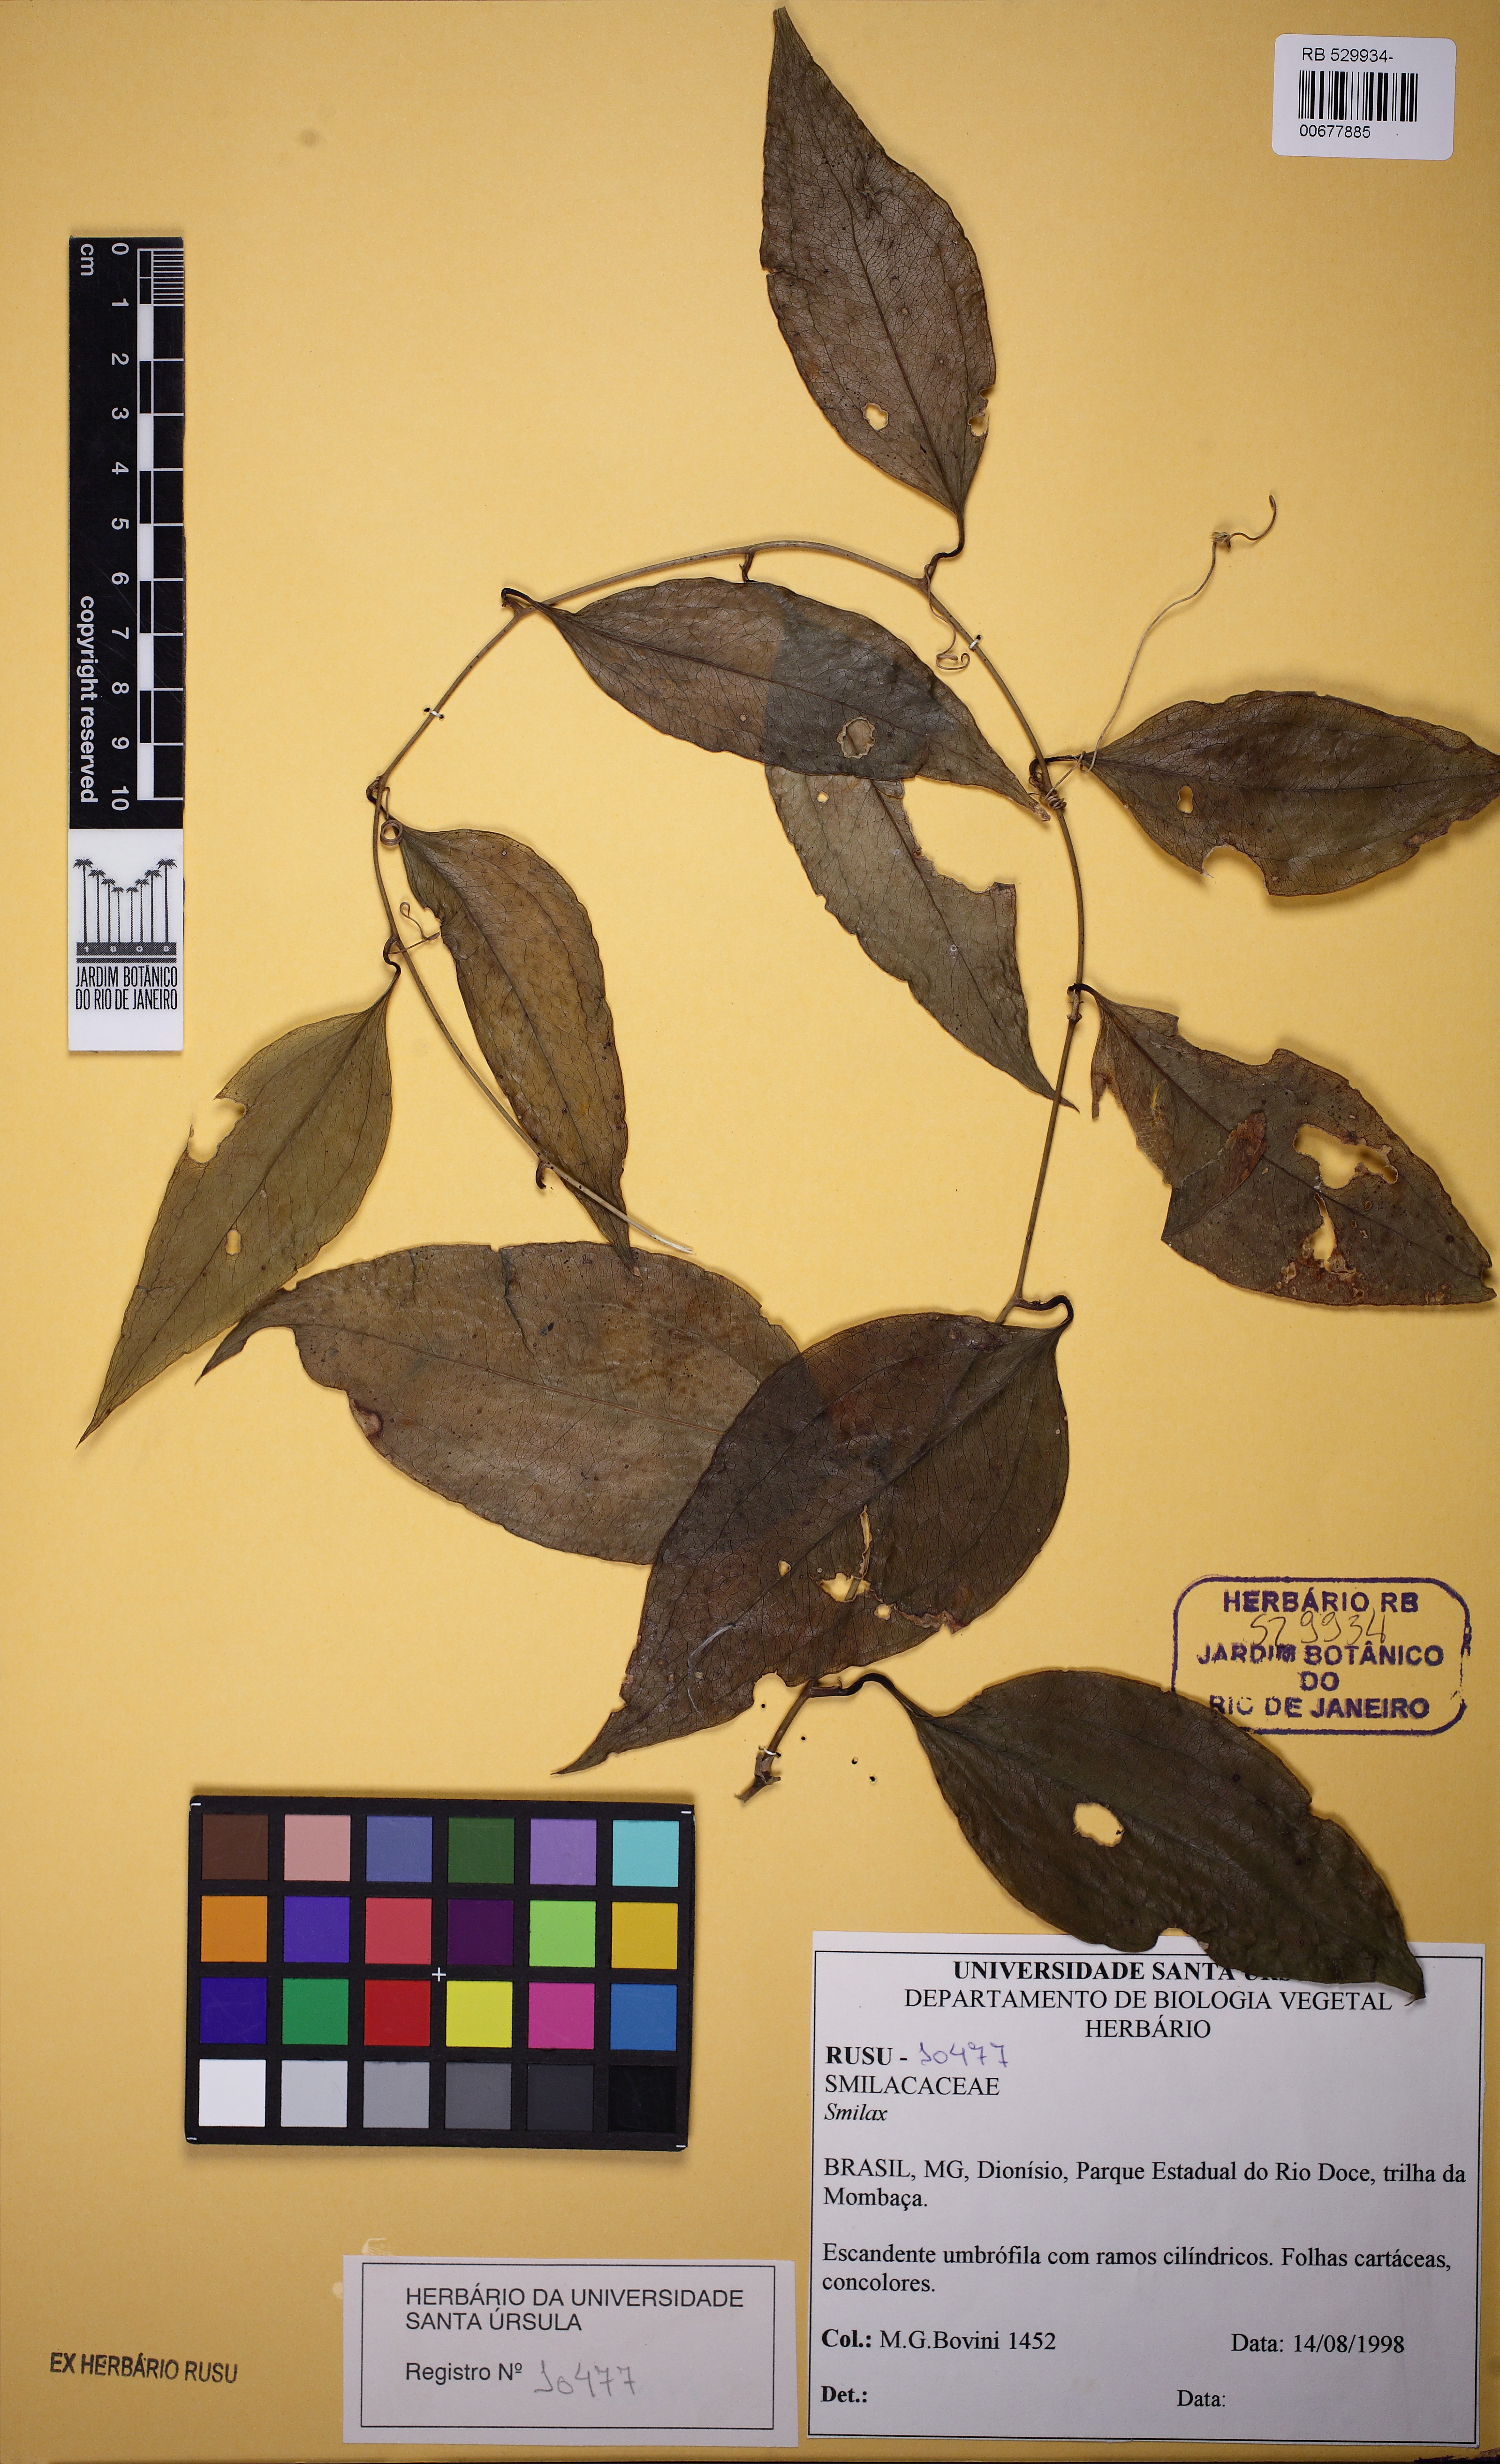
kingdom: Plantae
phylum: Tracheophyta
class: Liliopsida
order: Liliales
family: Smilacaceae
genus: Smilax
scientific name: Smilax
